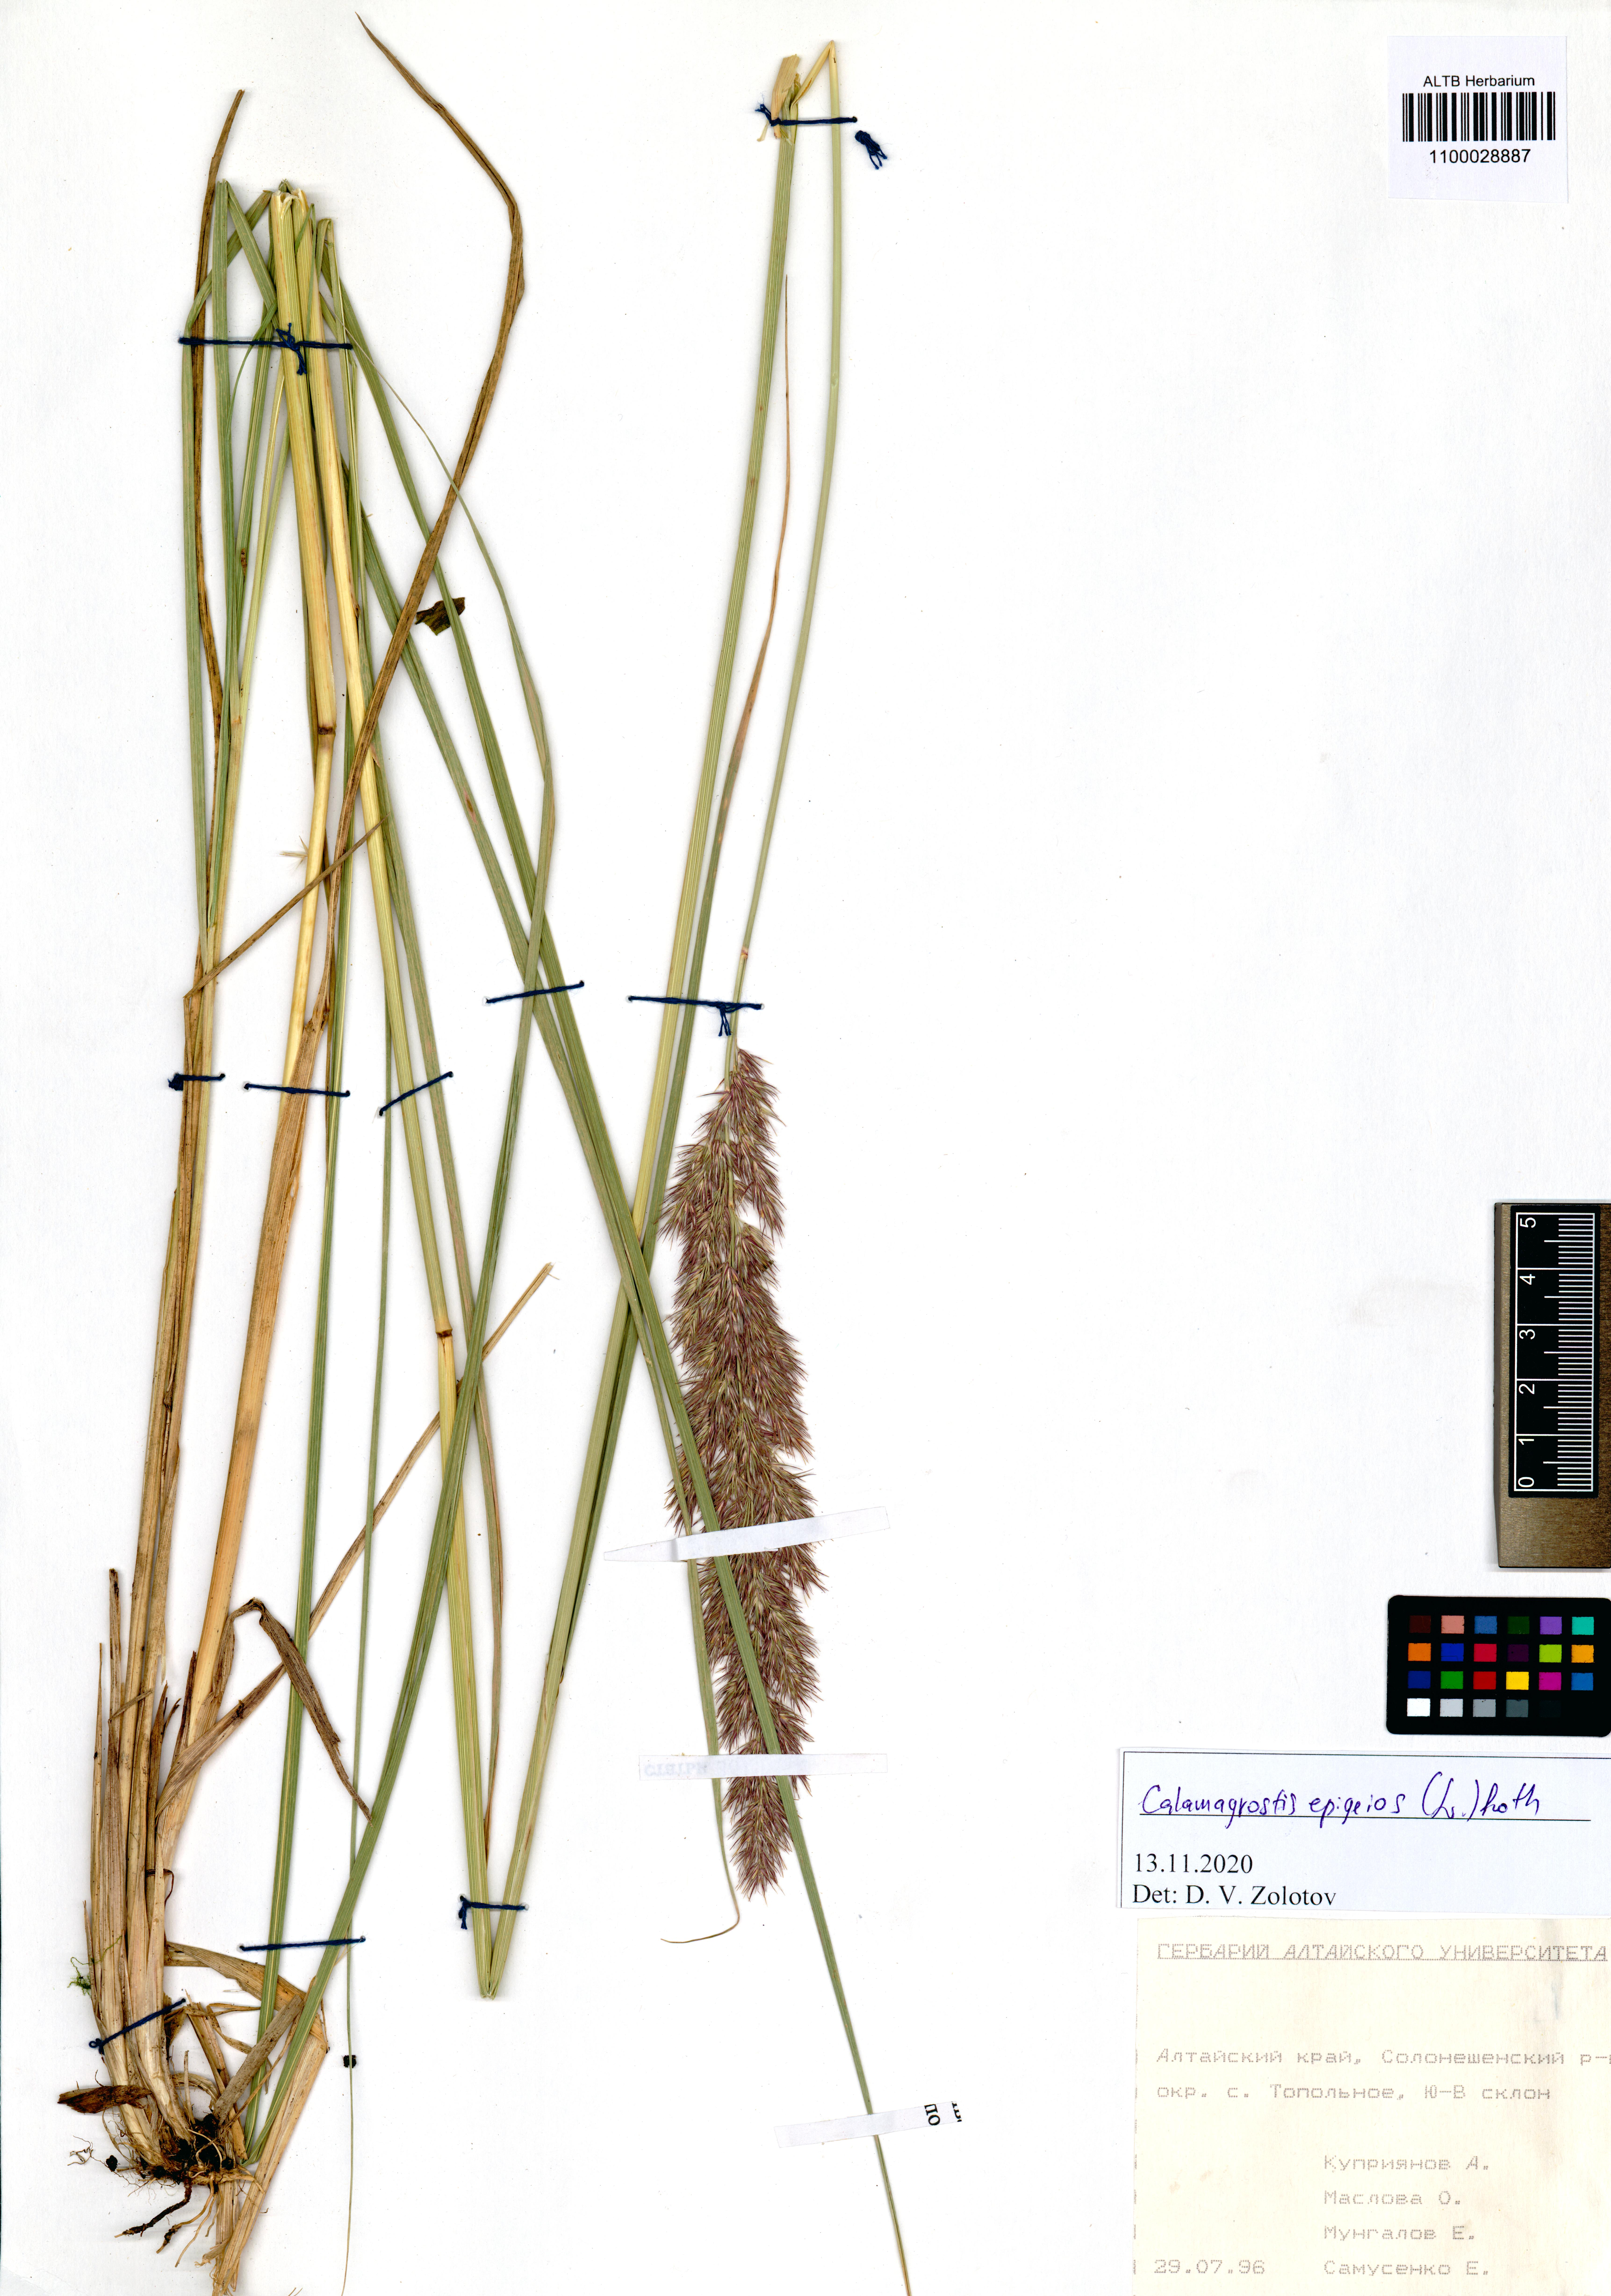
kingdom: Plantae
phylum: Tracheophyta
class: Liliopsida
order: Poales
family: Poaceae
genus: Calamagrostis
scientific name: Calamagrostis epigejos
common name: Wood small-reed
